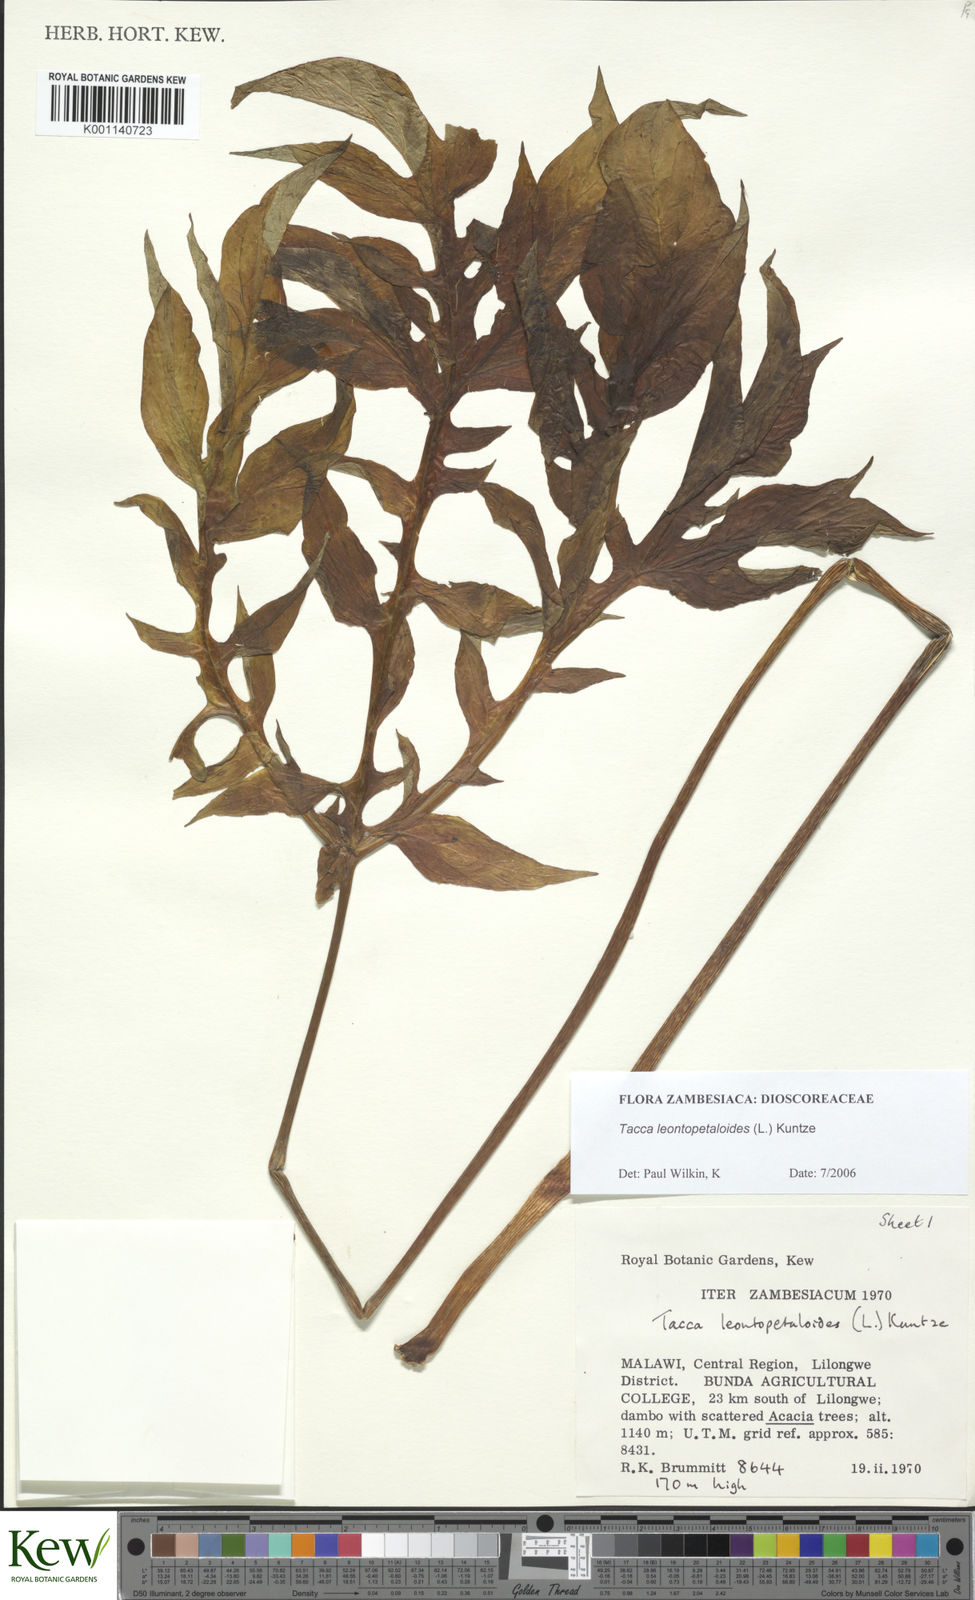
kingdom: Plantae
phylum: Tracheophyta
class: Liliopsida
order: Dioscoreales
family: Dioscoreaceae
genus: Tacca
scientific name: Tacca leontopetaloides
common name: Arrowroot
